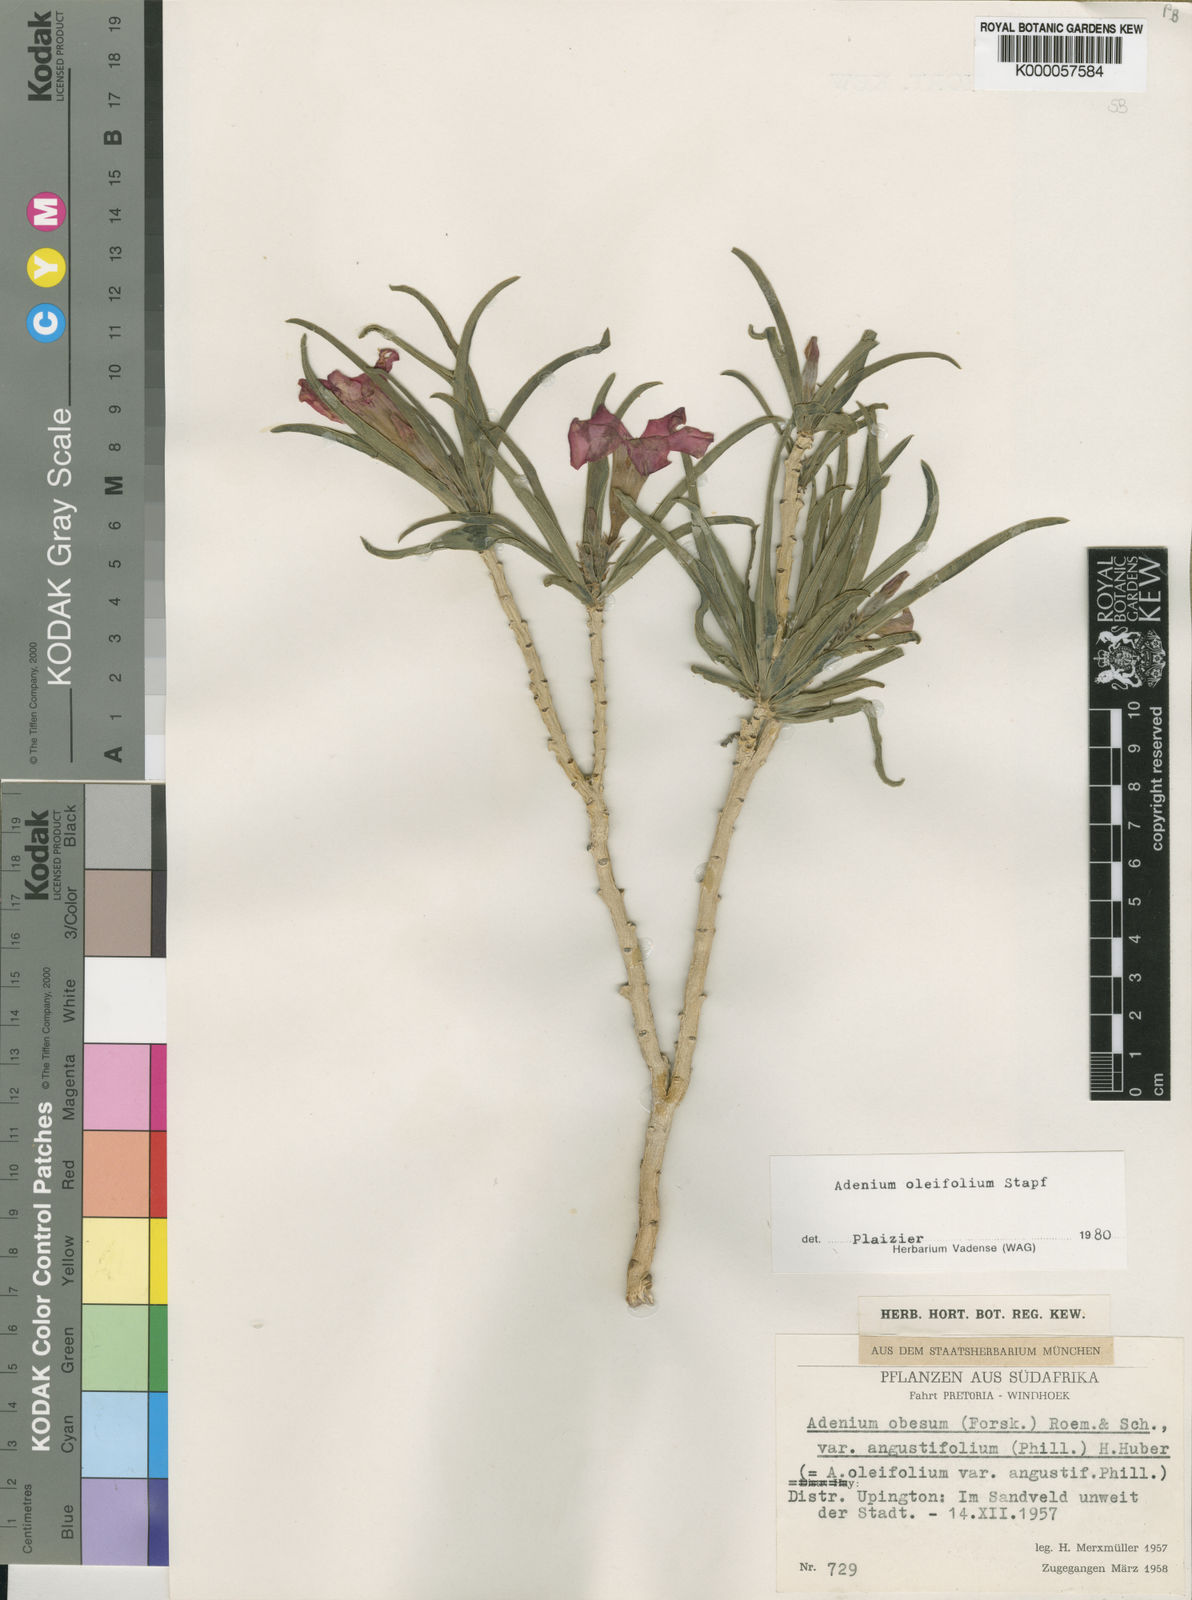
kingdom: Plantae
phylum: Tracheophyta
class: Magnoliopsida
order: Gentianales
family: Apocynaceae
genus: Adenium
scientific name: Adenium obesum
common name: Desert-rose
